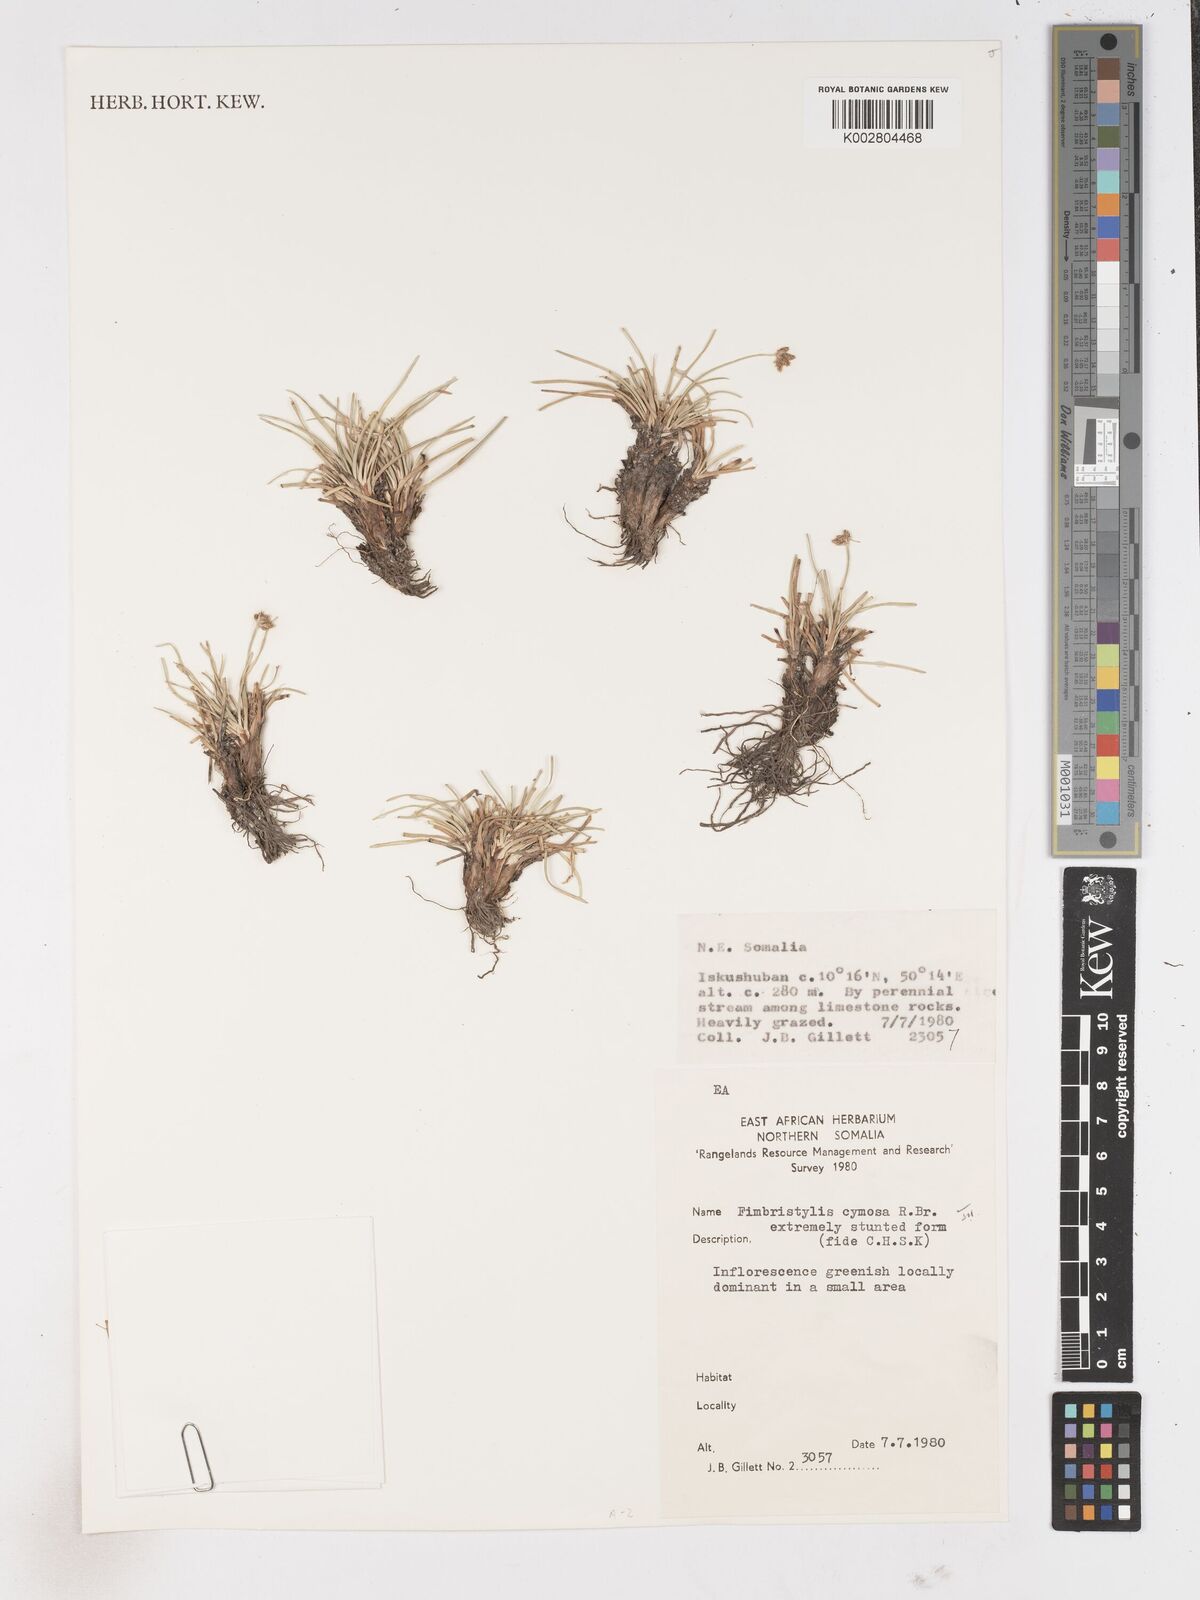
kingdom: Plantae
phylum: Tracheophyta
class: Liliopsida
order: Poales
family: Cyperaceae
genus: Fimbristylis
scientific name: Fimbristylis cymosa
